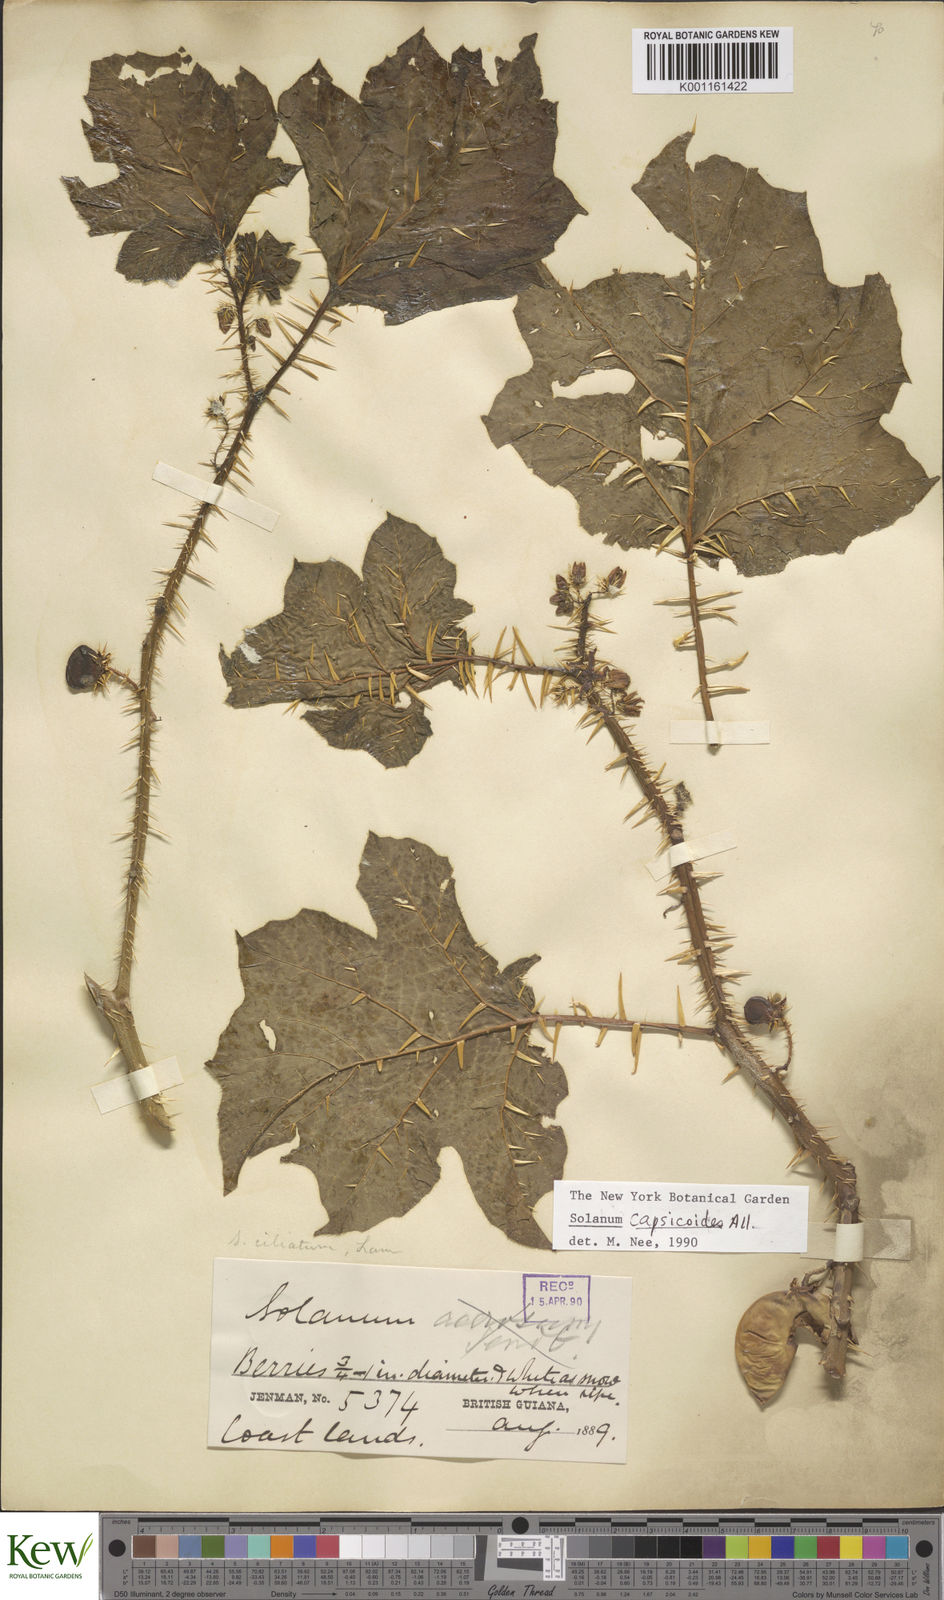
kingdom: Plantae
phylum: Tracheophyta
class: Magnoliopsida
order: Solanales
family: Solanaceae
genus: Solanum
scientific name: Solanum capsicoides
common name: Cockroach berry
